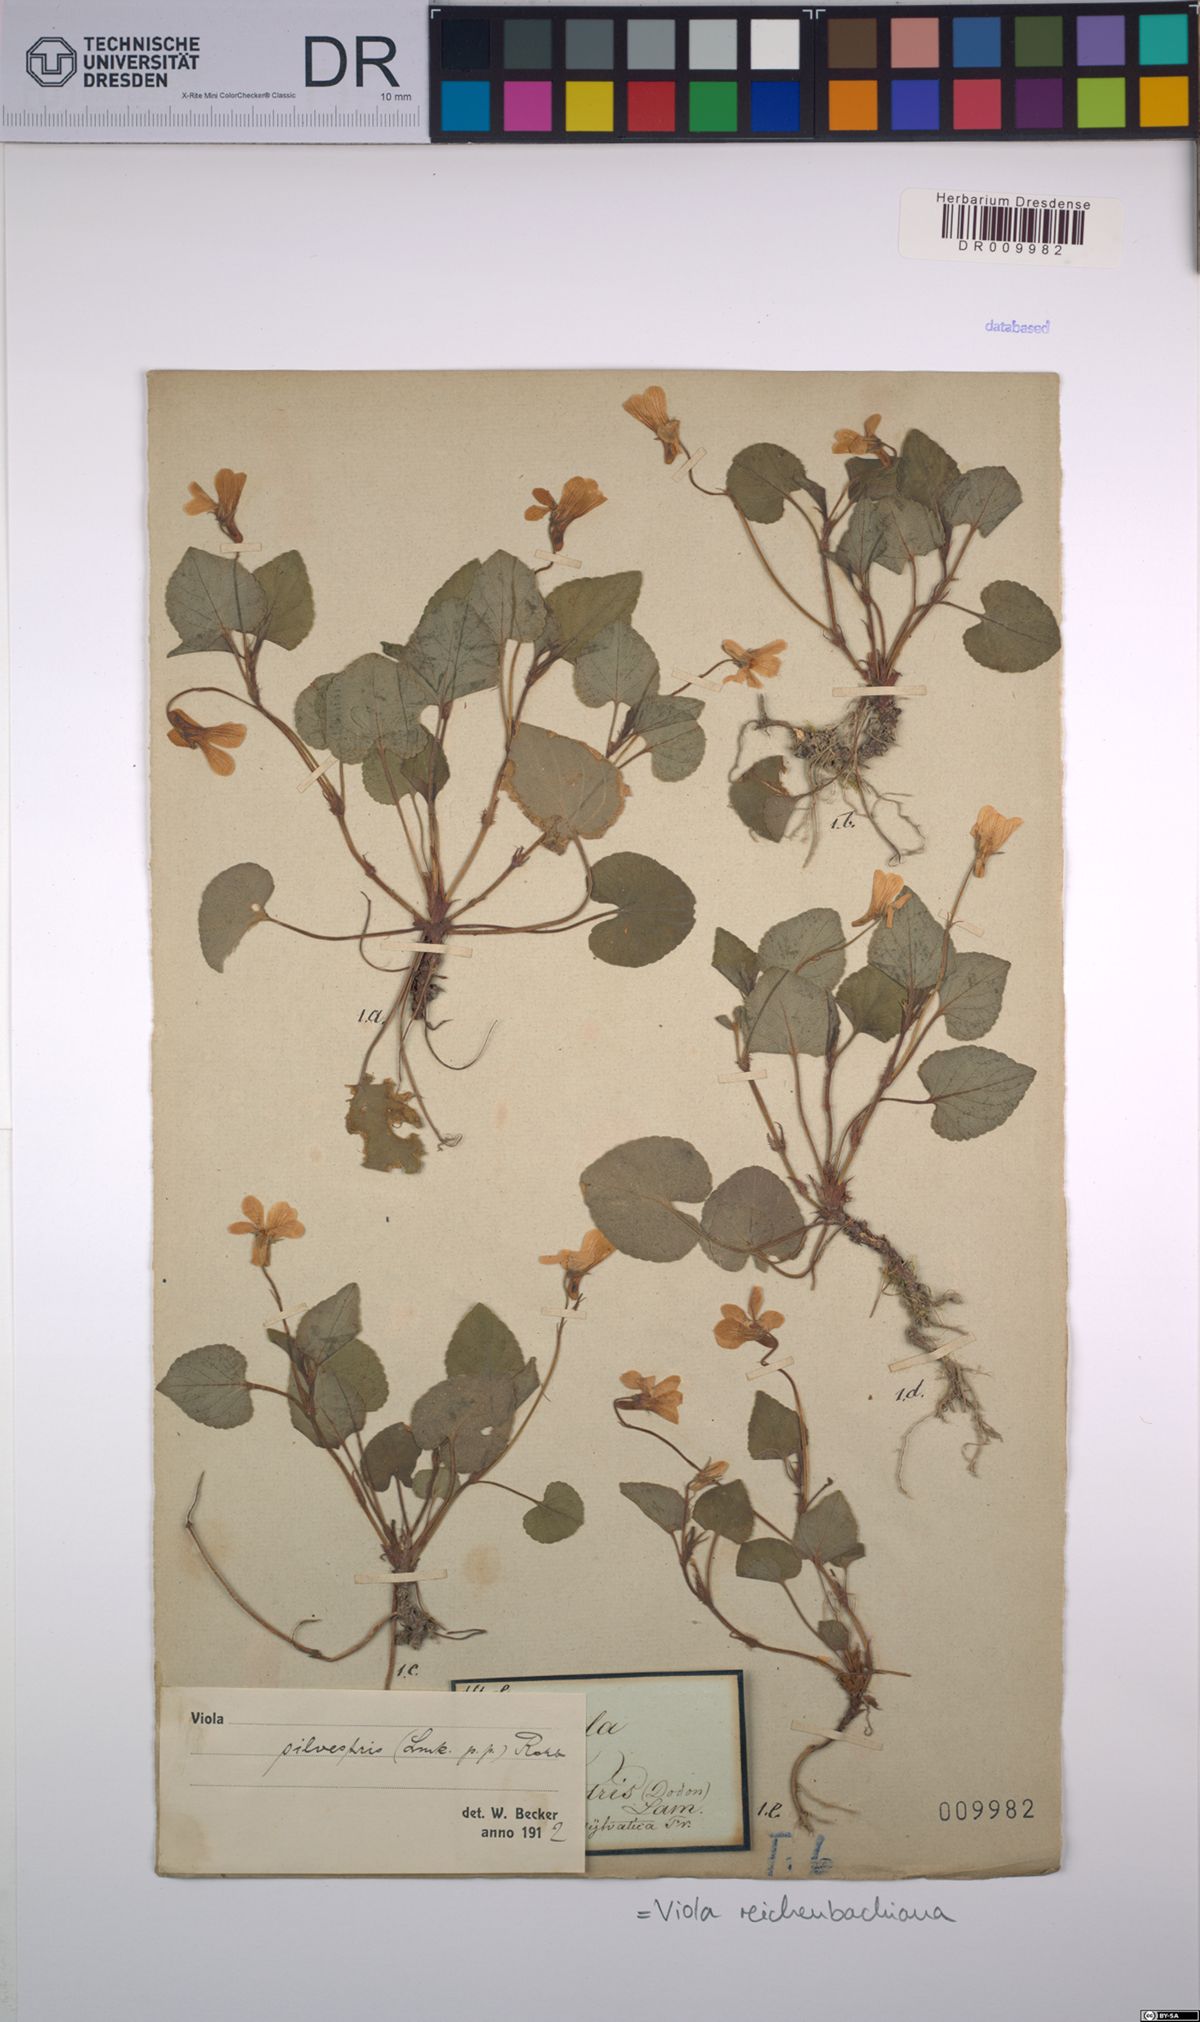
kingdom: Plantae
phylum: Tracheophyta
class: Magnoliopsida
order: Malpighiales
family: Violaceae
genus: Viola
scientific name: Viola reichenbachiana
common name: Early dog-violet
